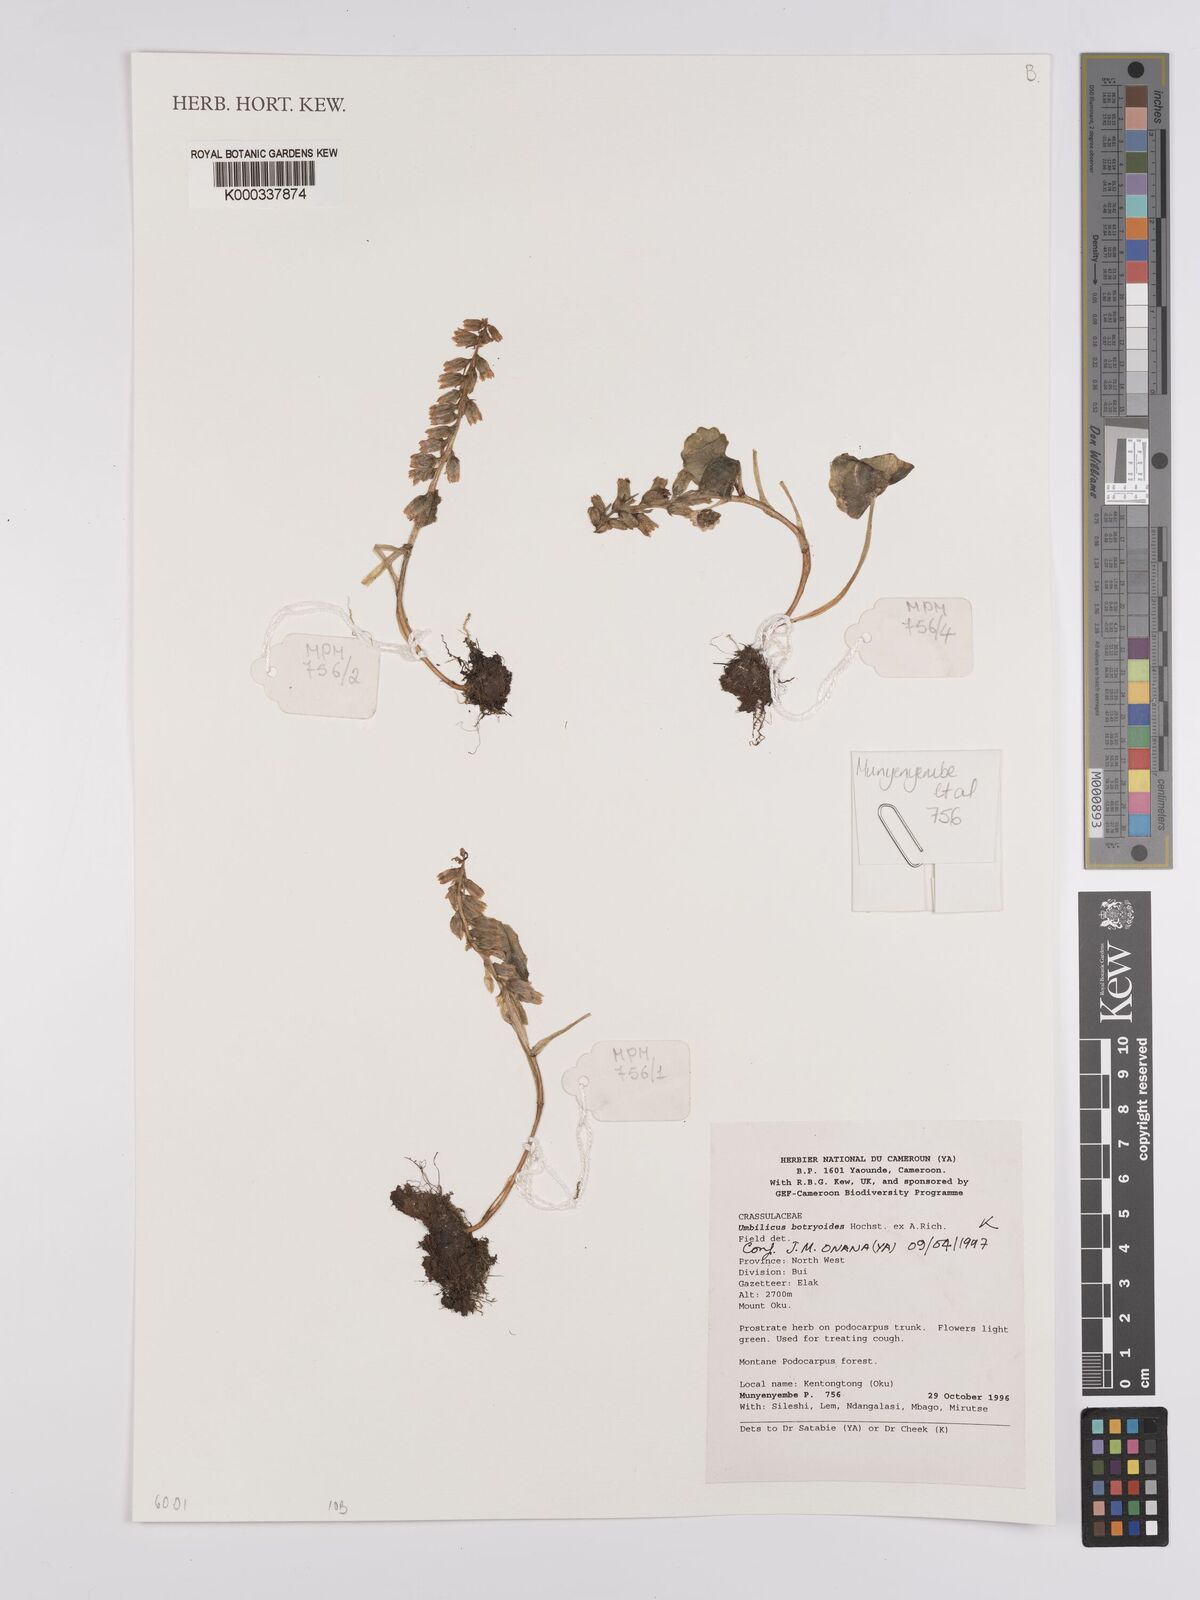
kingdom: Plantae
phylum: Tracheophyta
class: Magnoliopsida
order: Saxifragales
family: Crassulaceae
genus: Umbilicus
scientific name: Umbilicus botryoides
